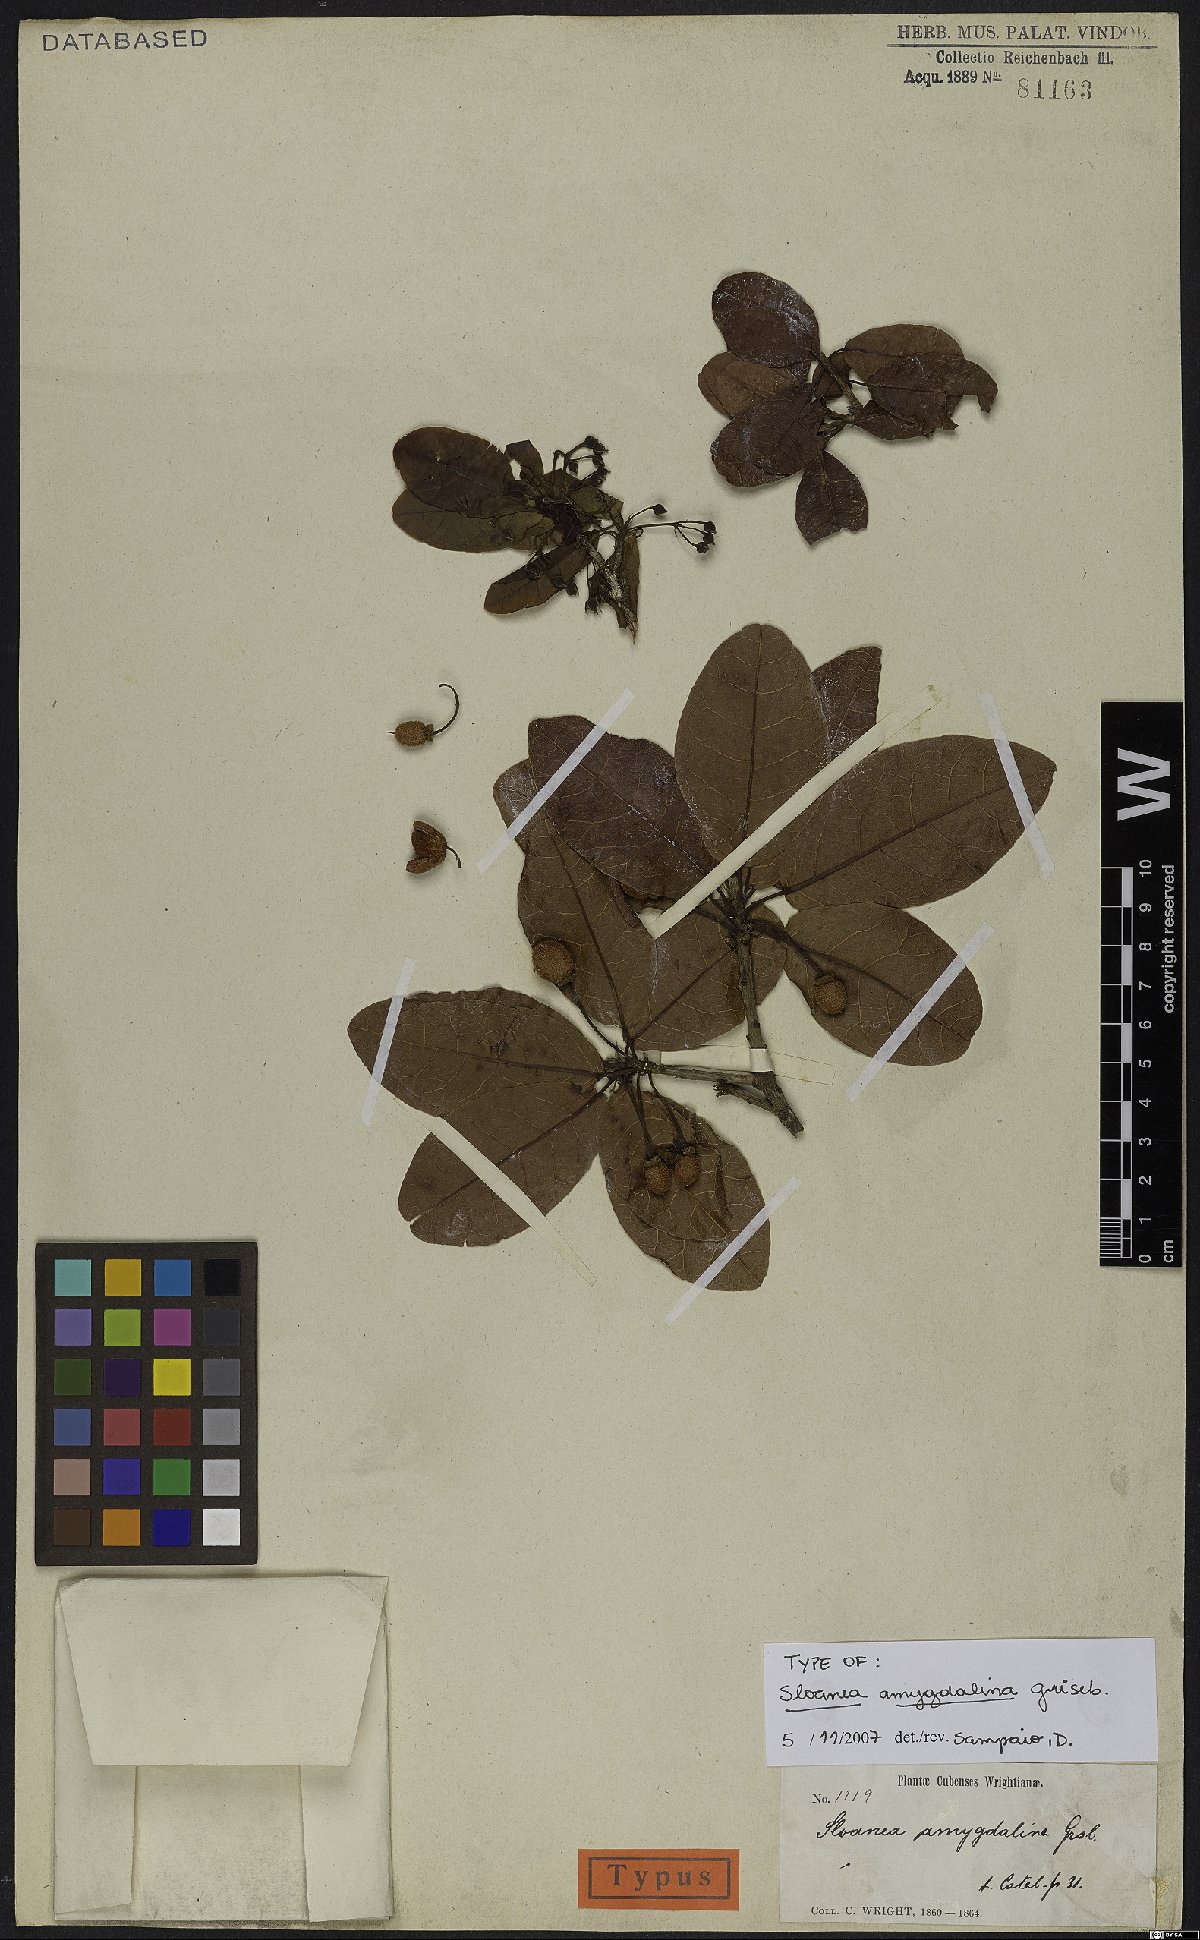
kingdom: Plantae
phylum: Tracheophyta
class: Magnoliopsida
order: Oxalidales
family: Elaeocarpaceae
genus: Sloanea
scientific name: Sloanea amygdalina
